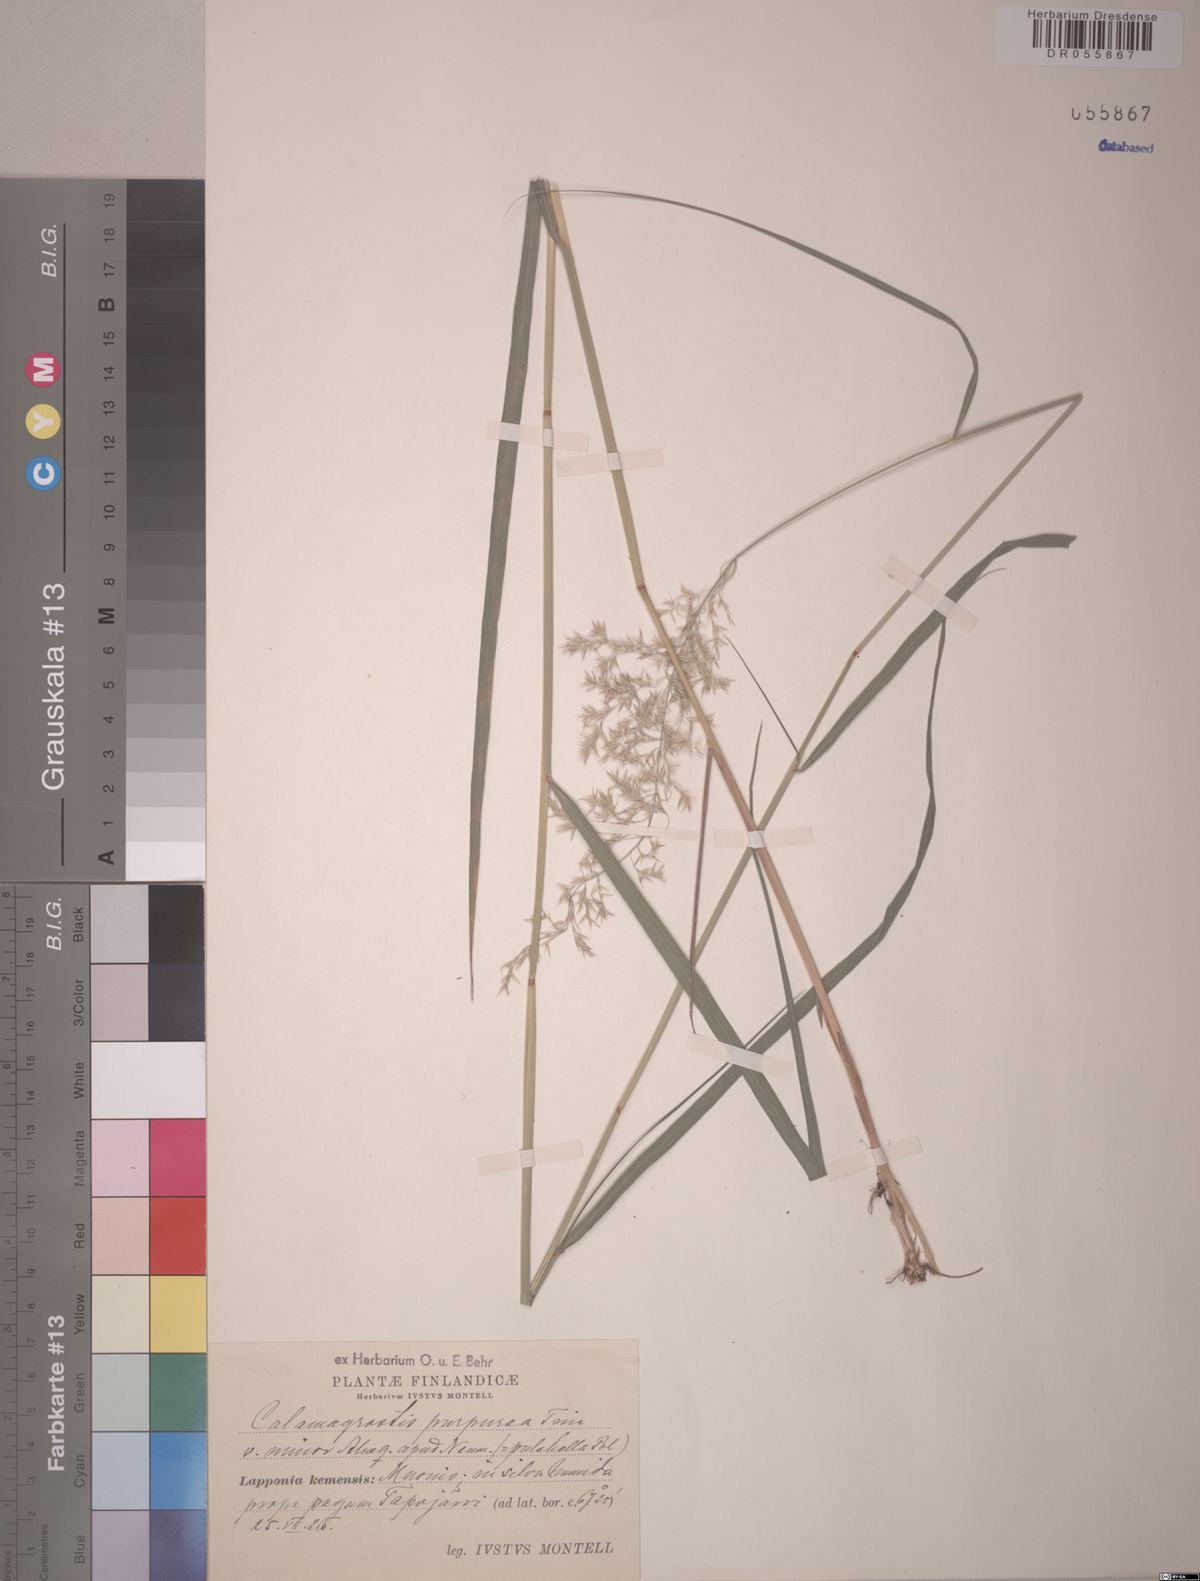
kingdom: Plantae
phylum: Tracheophyta
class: Liliopsida
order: Poales
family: Poaceae
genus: Calamagrostis
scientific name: Calamagrostis purpurea
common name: Scandinavian small-reed
